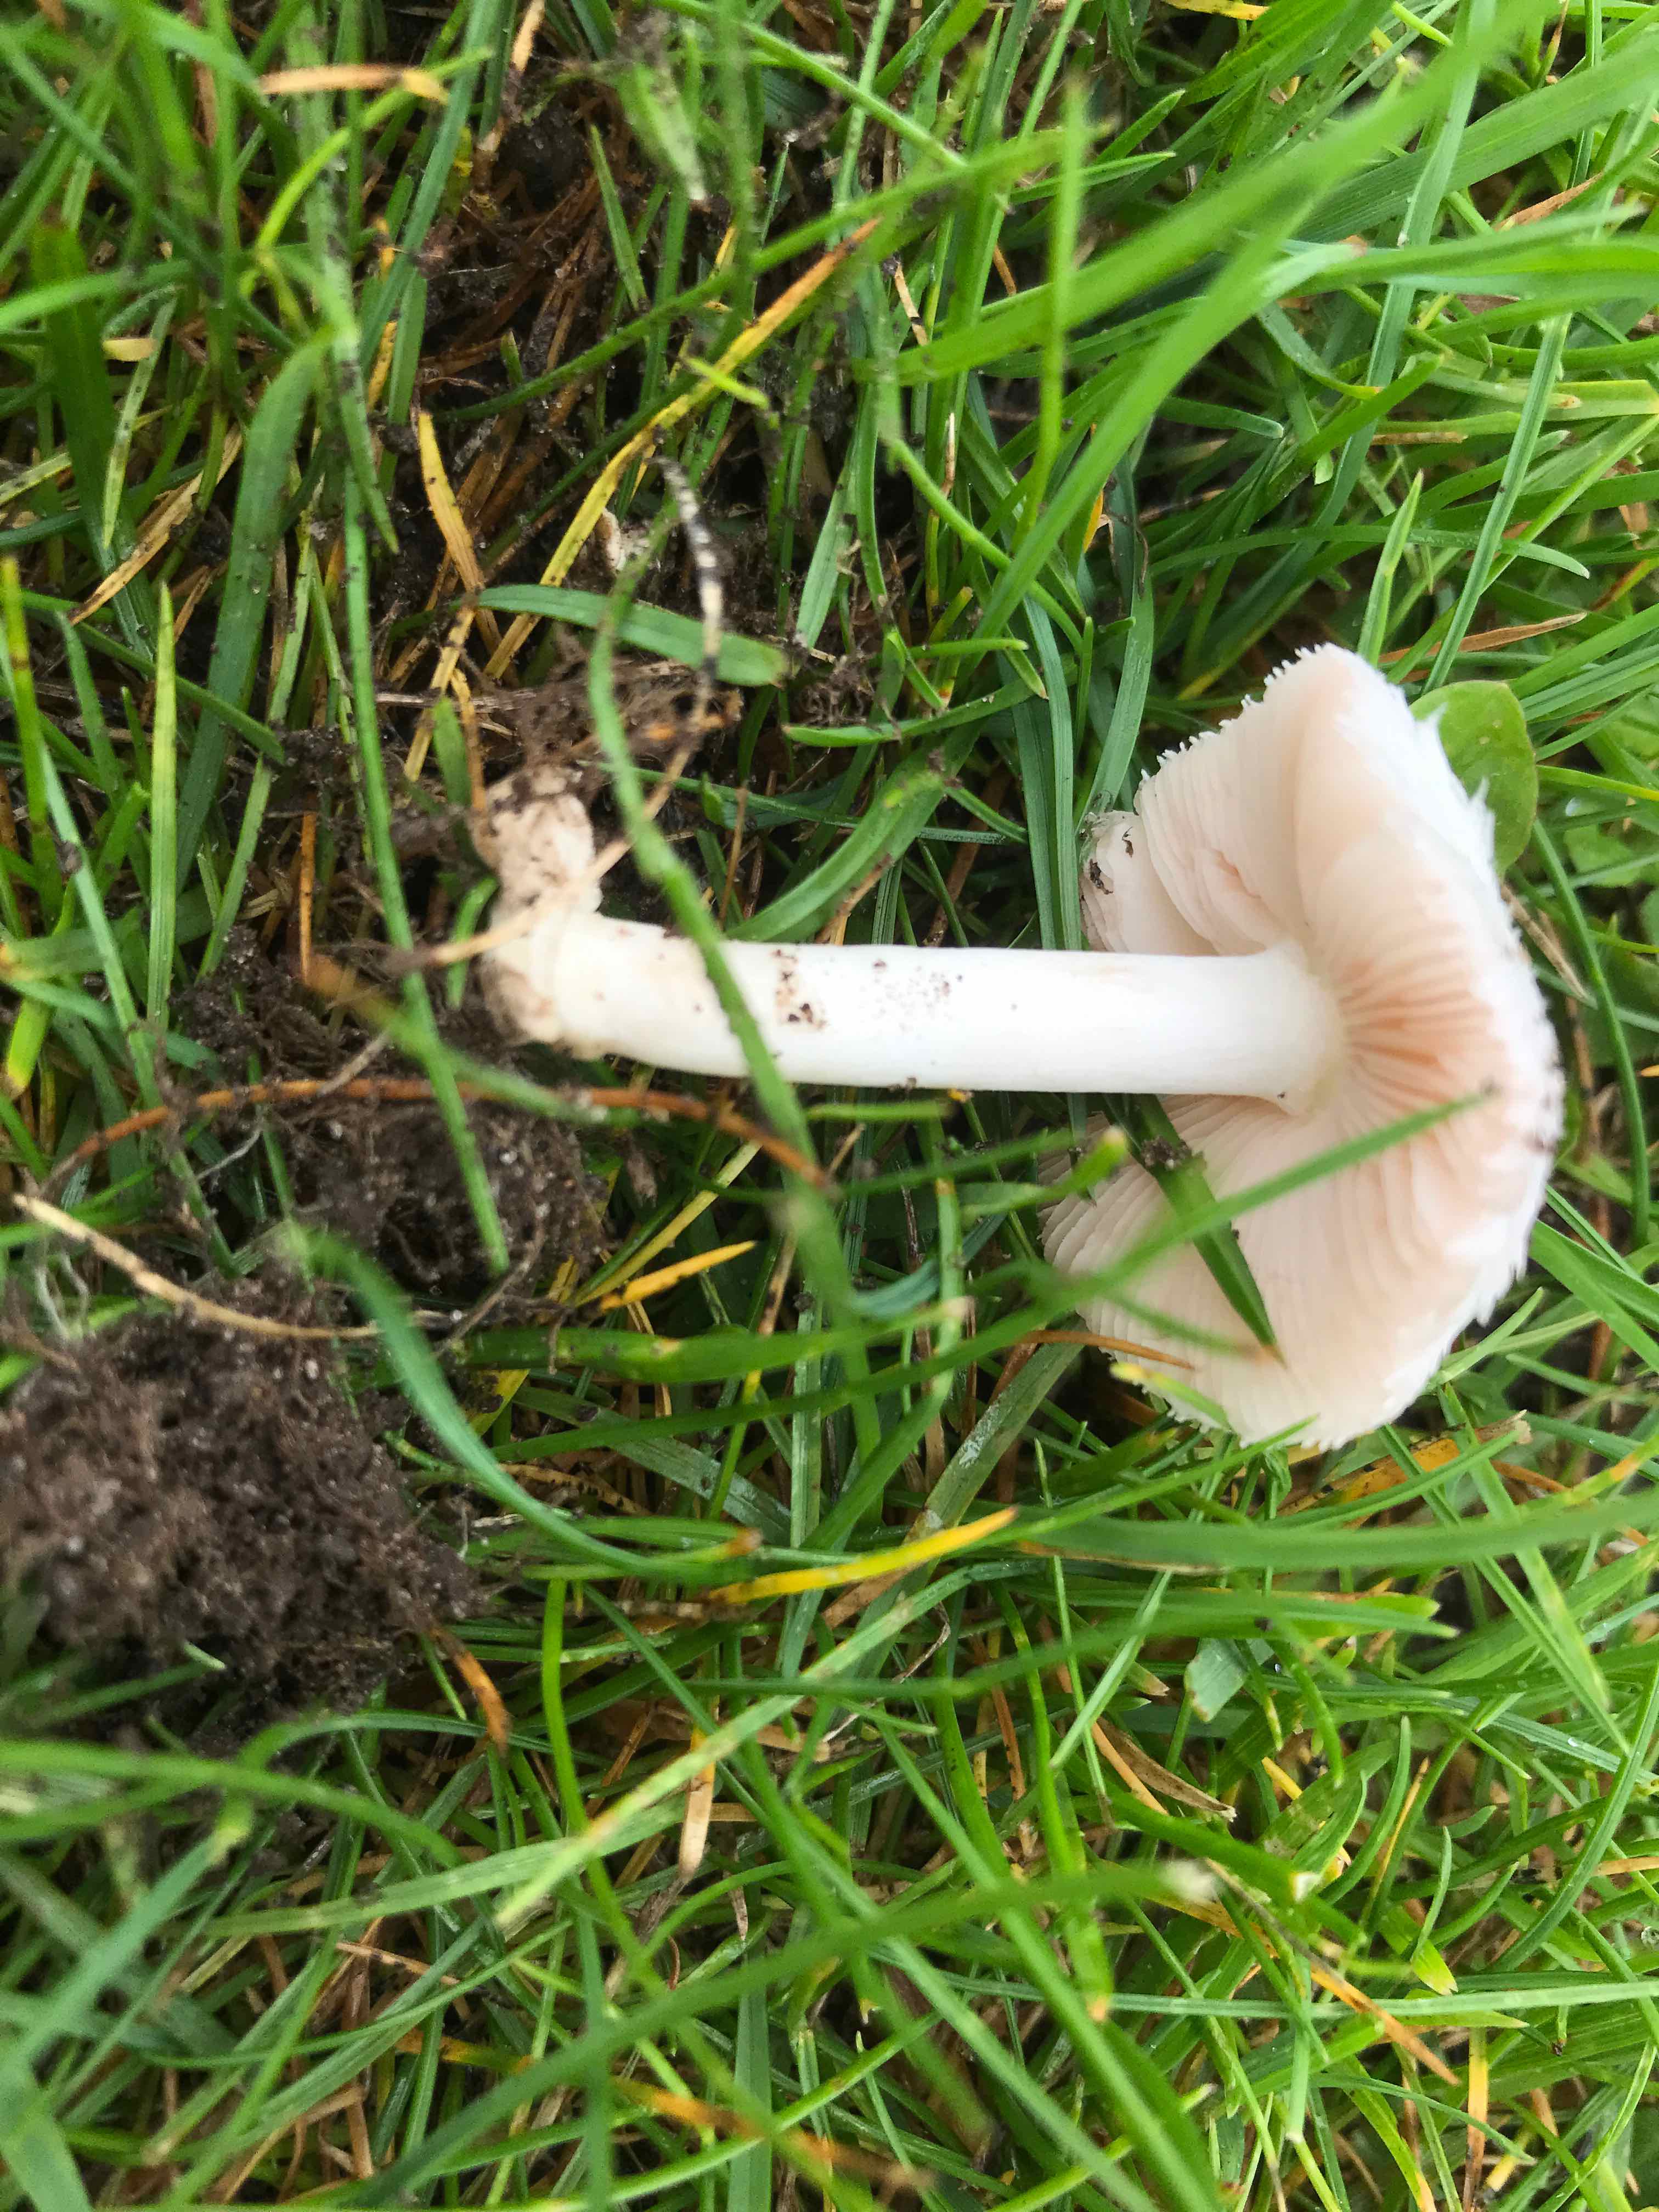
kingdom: Fungi
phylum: Basidiomycota
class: Agaricomycetes
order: Agaricales
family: Pluteaceae
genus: Volvariella
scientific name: Volvariella
